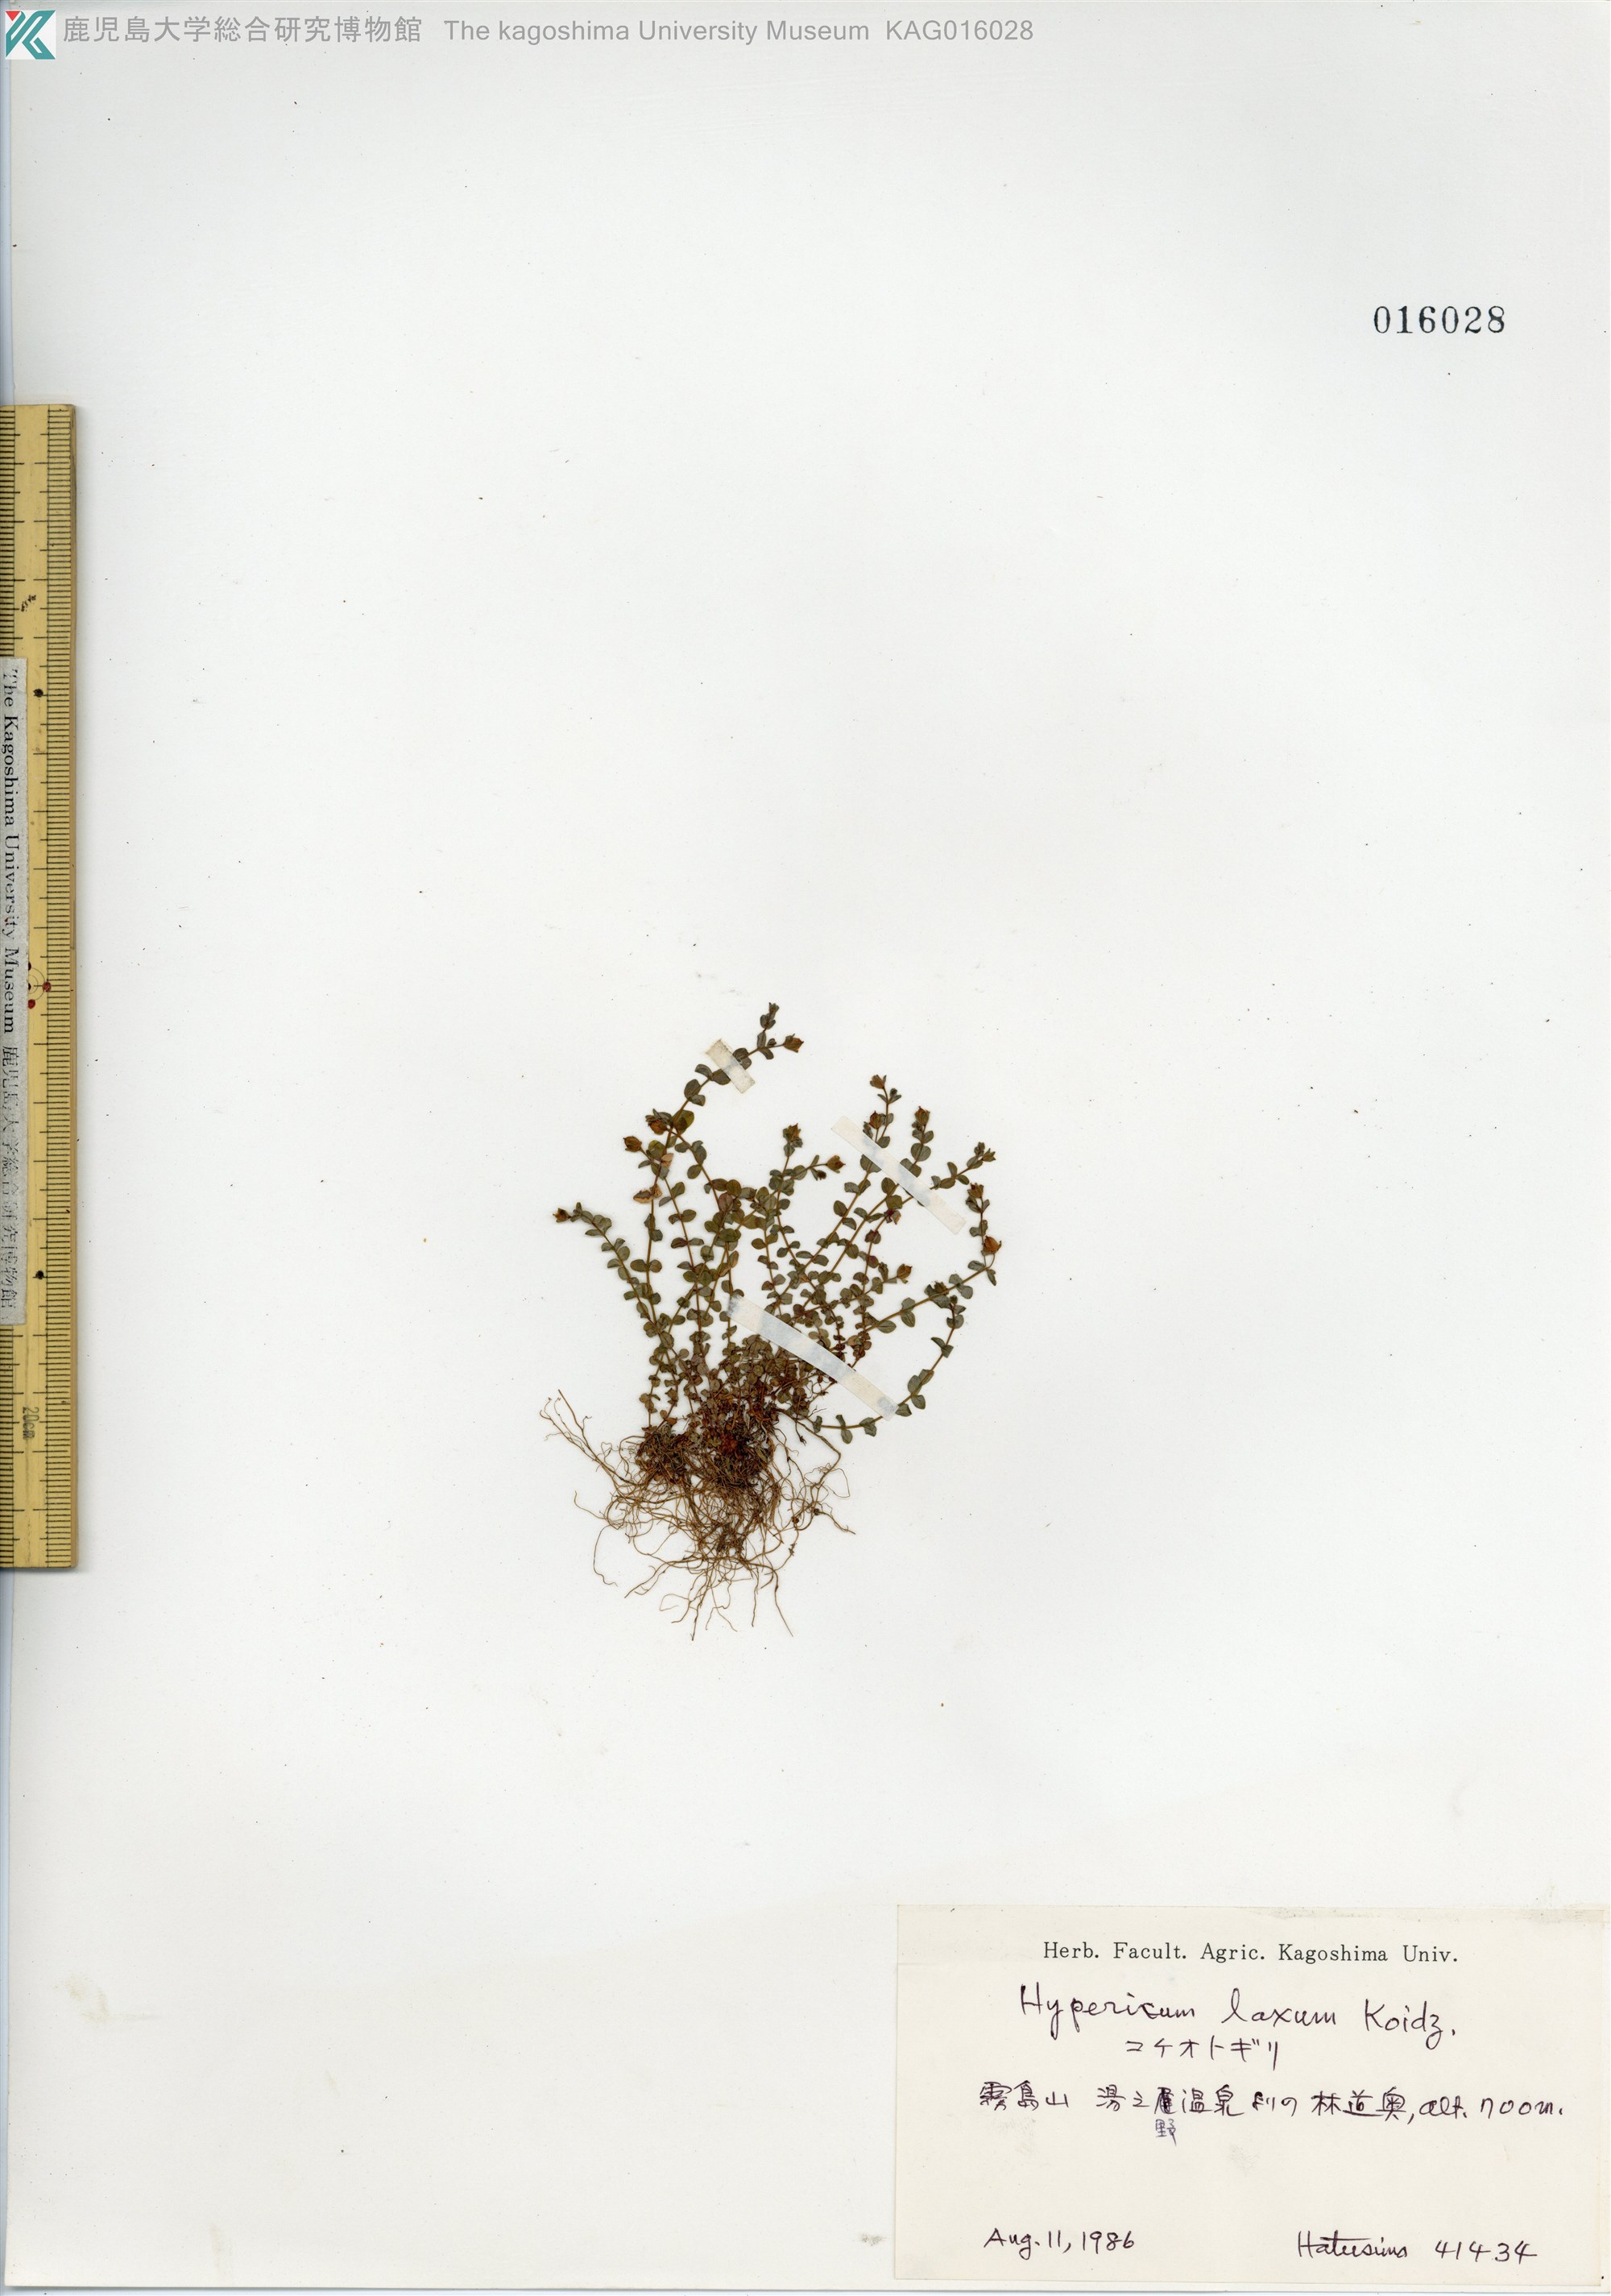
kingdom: Plantae
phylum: Tracheophyta
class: Magnoliopsida
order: Malpighiales
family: Hypericaceae
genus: Hypericum
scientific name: Hypericum japonicum
